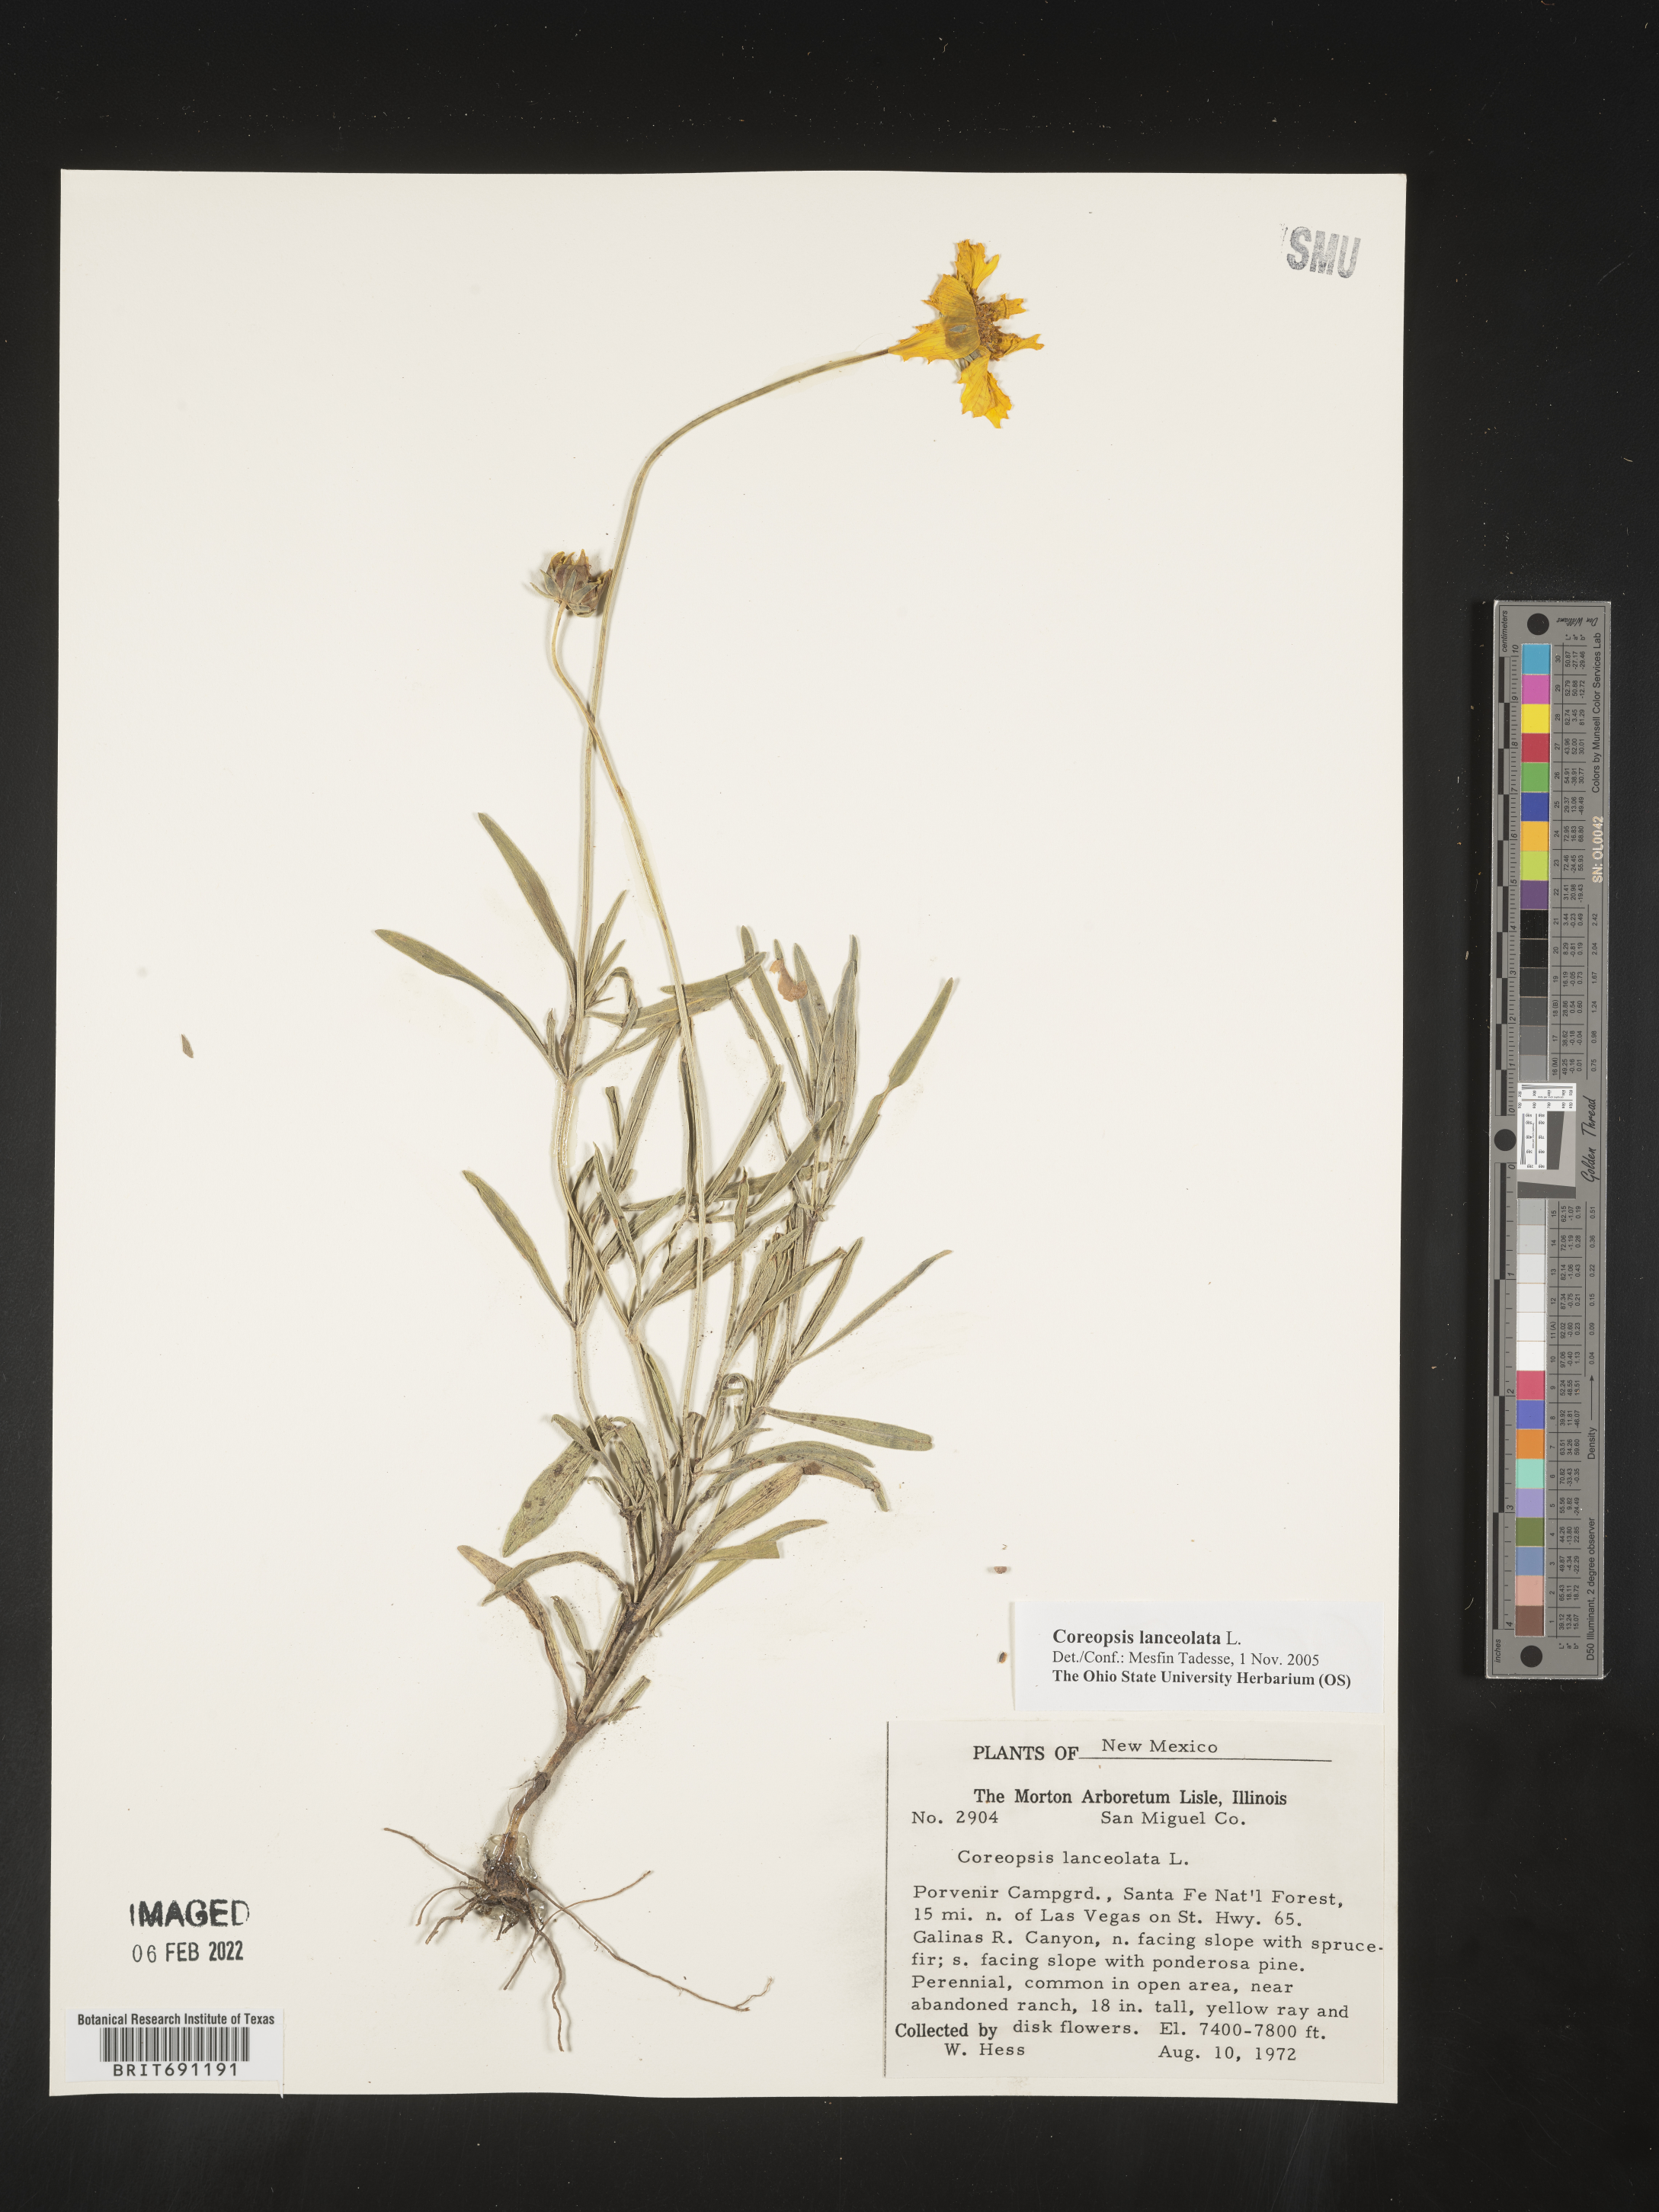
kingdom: Plantae
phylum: Tracheophyta
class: Magnoliopsida
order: Asterales
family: Asteraceae
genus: Coreopsis
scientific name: Coreopsis lanceolata
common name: Garden coreopsis
